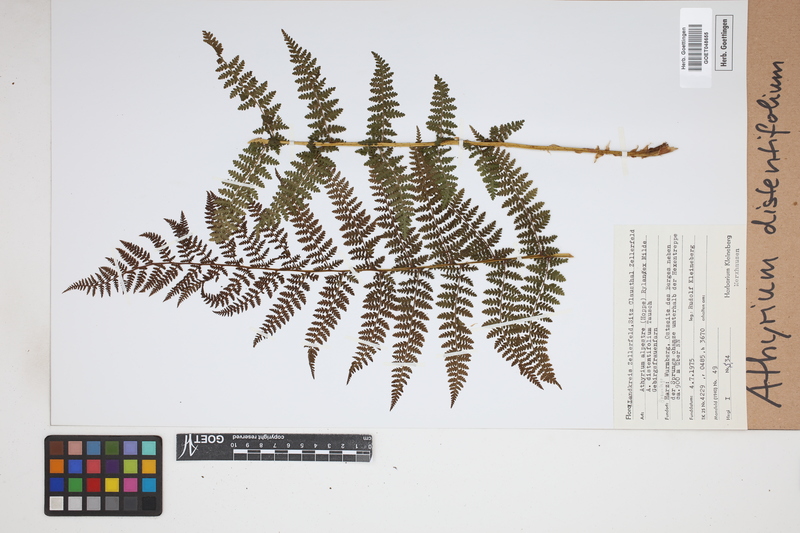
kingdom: Plantae
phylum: Tracheophyta
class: Polypodiopsida
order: Polypodiales
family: Athyriaceae
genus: Pseudathyrium
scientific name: Pseudathyrium alpestre
